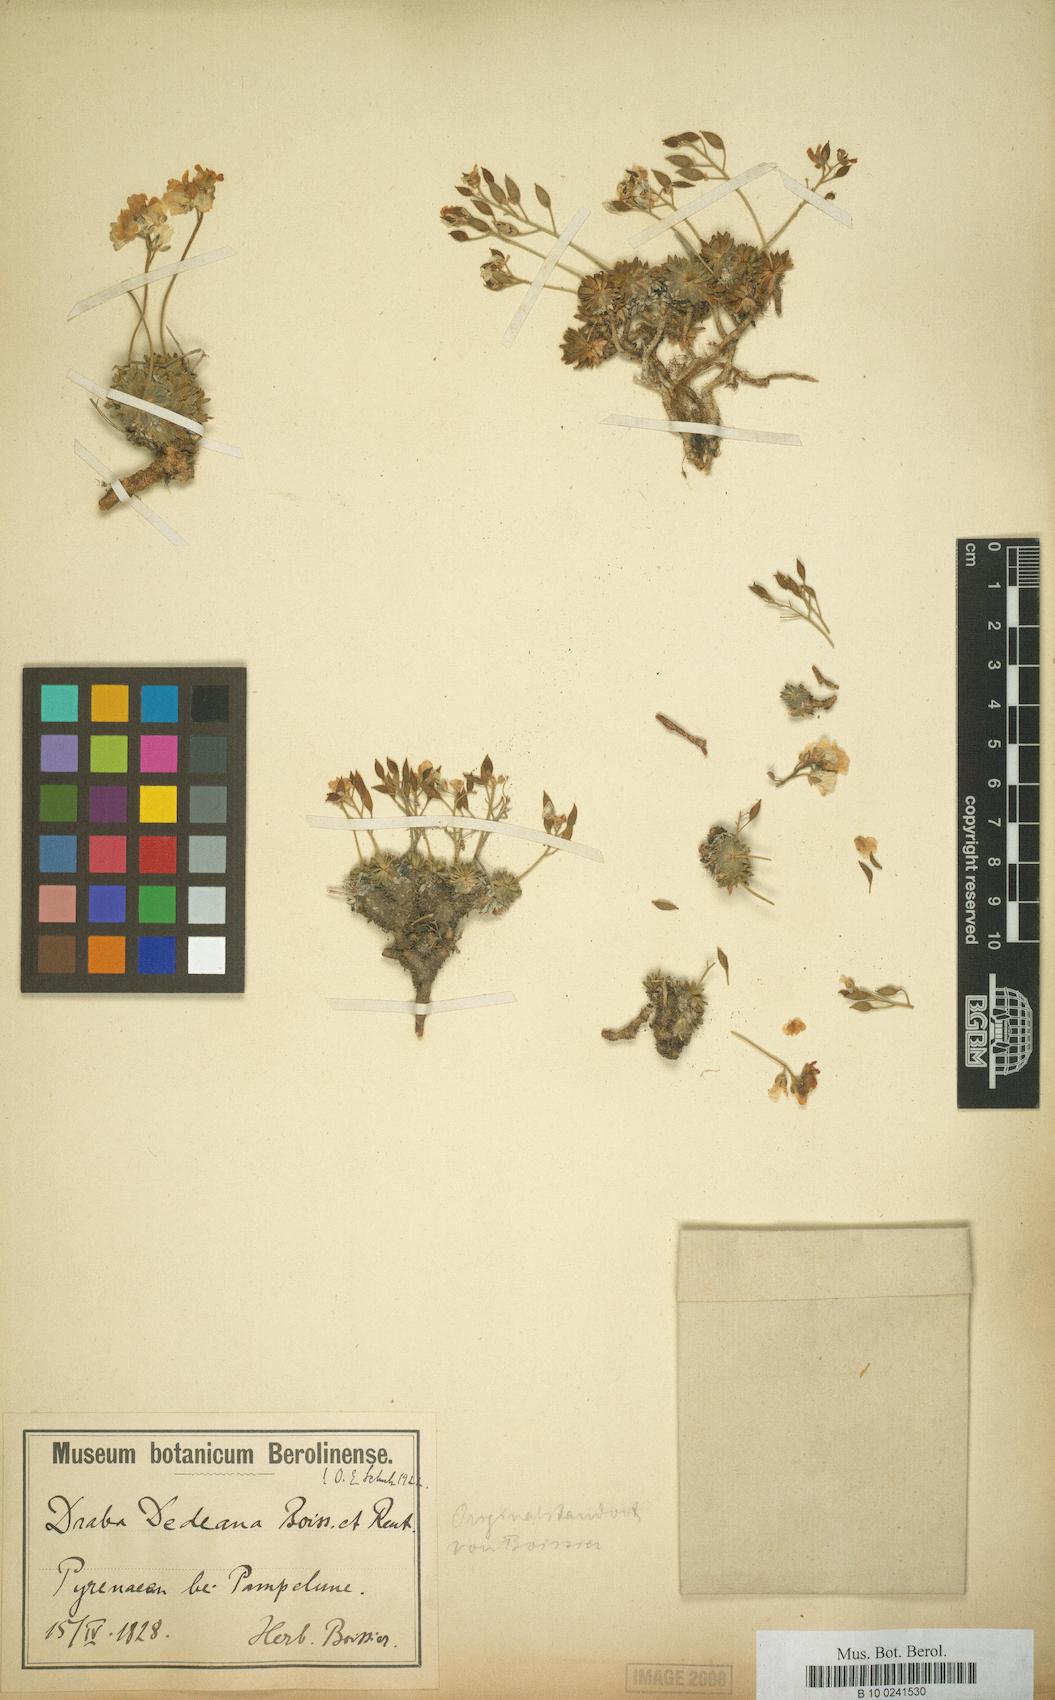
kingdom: Plantae
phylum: Tracheophyta
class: Magnoliopsida
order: Brassicales
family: Brassicaceae
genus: Draba
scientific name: Draba dedeana
